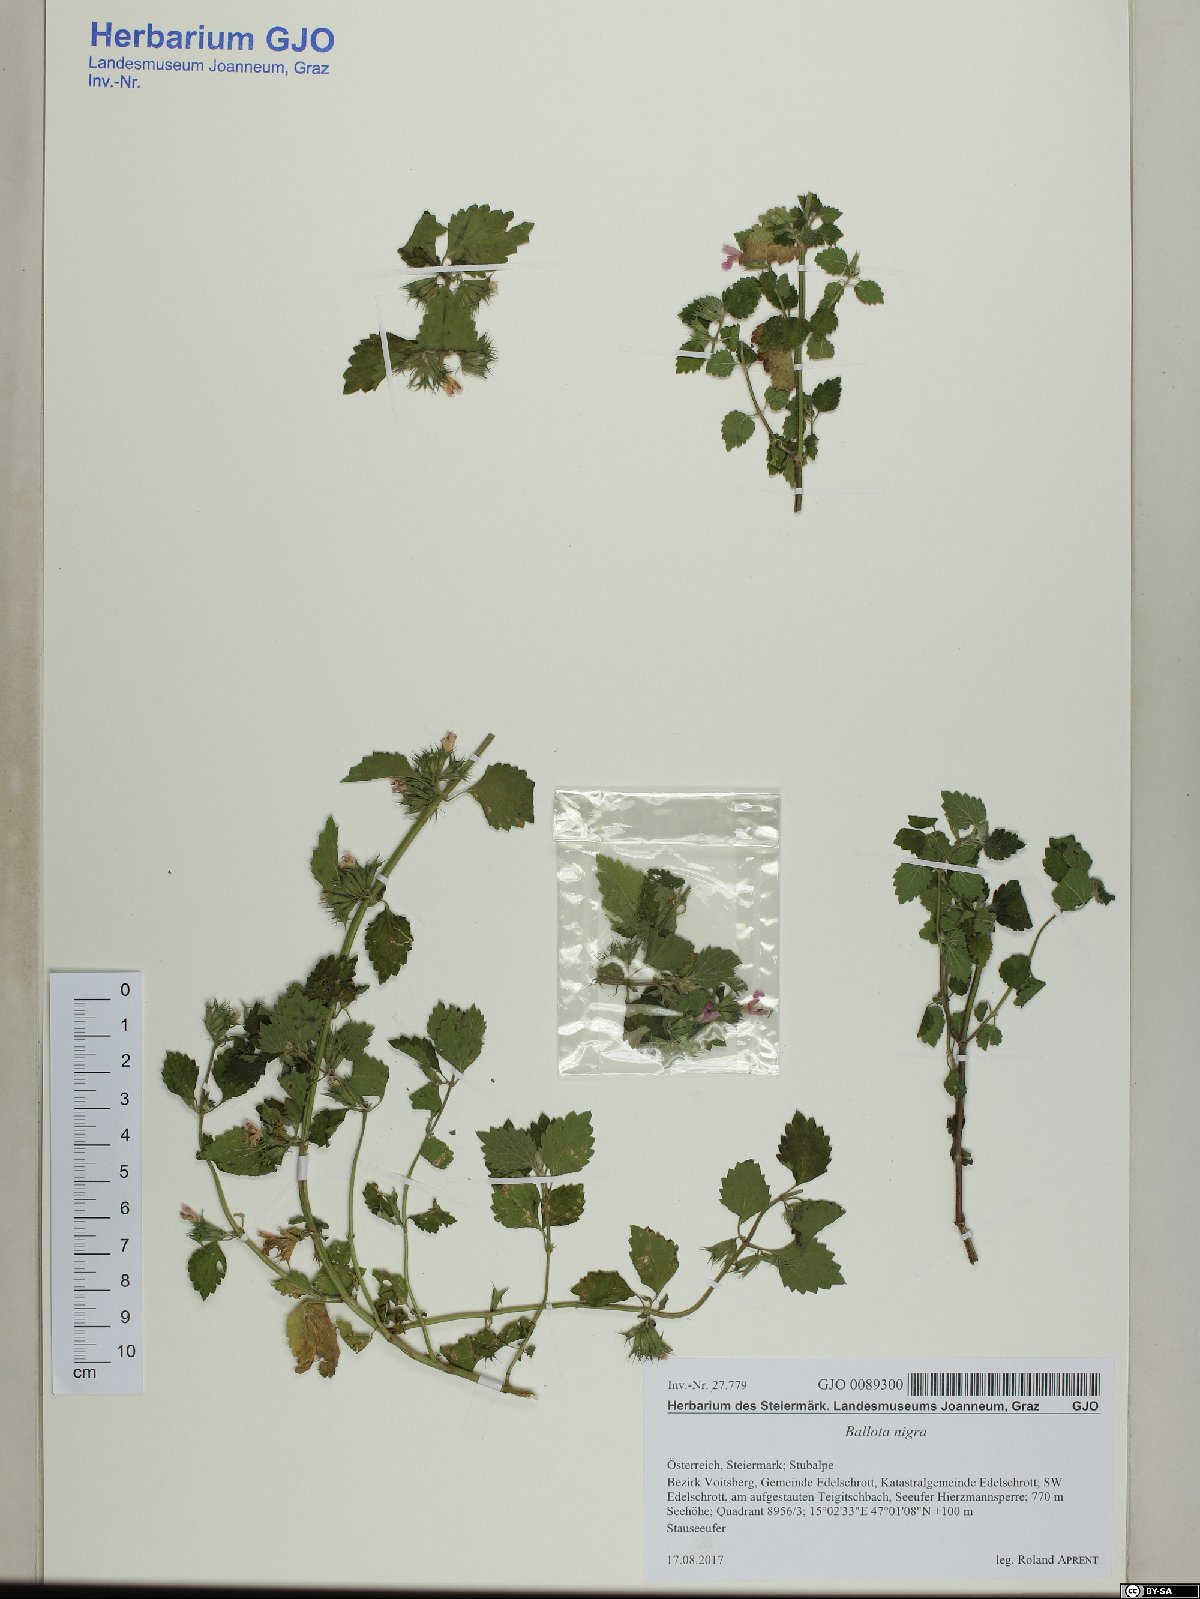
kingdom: Plantae
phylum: Tracheophyta
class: Magnoliopsida
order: Lamiales
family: Lamiaceae
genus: Ballota
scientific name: Ballota nigra
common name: Black horehound
